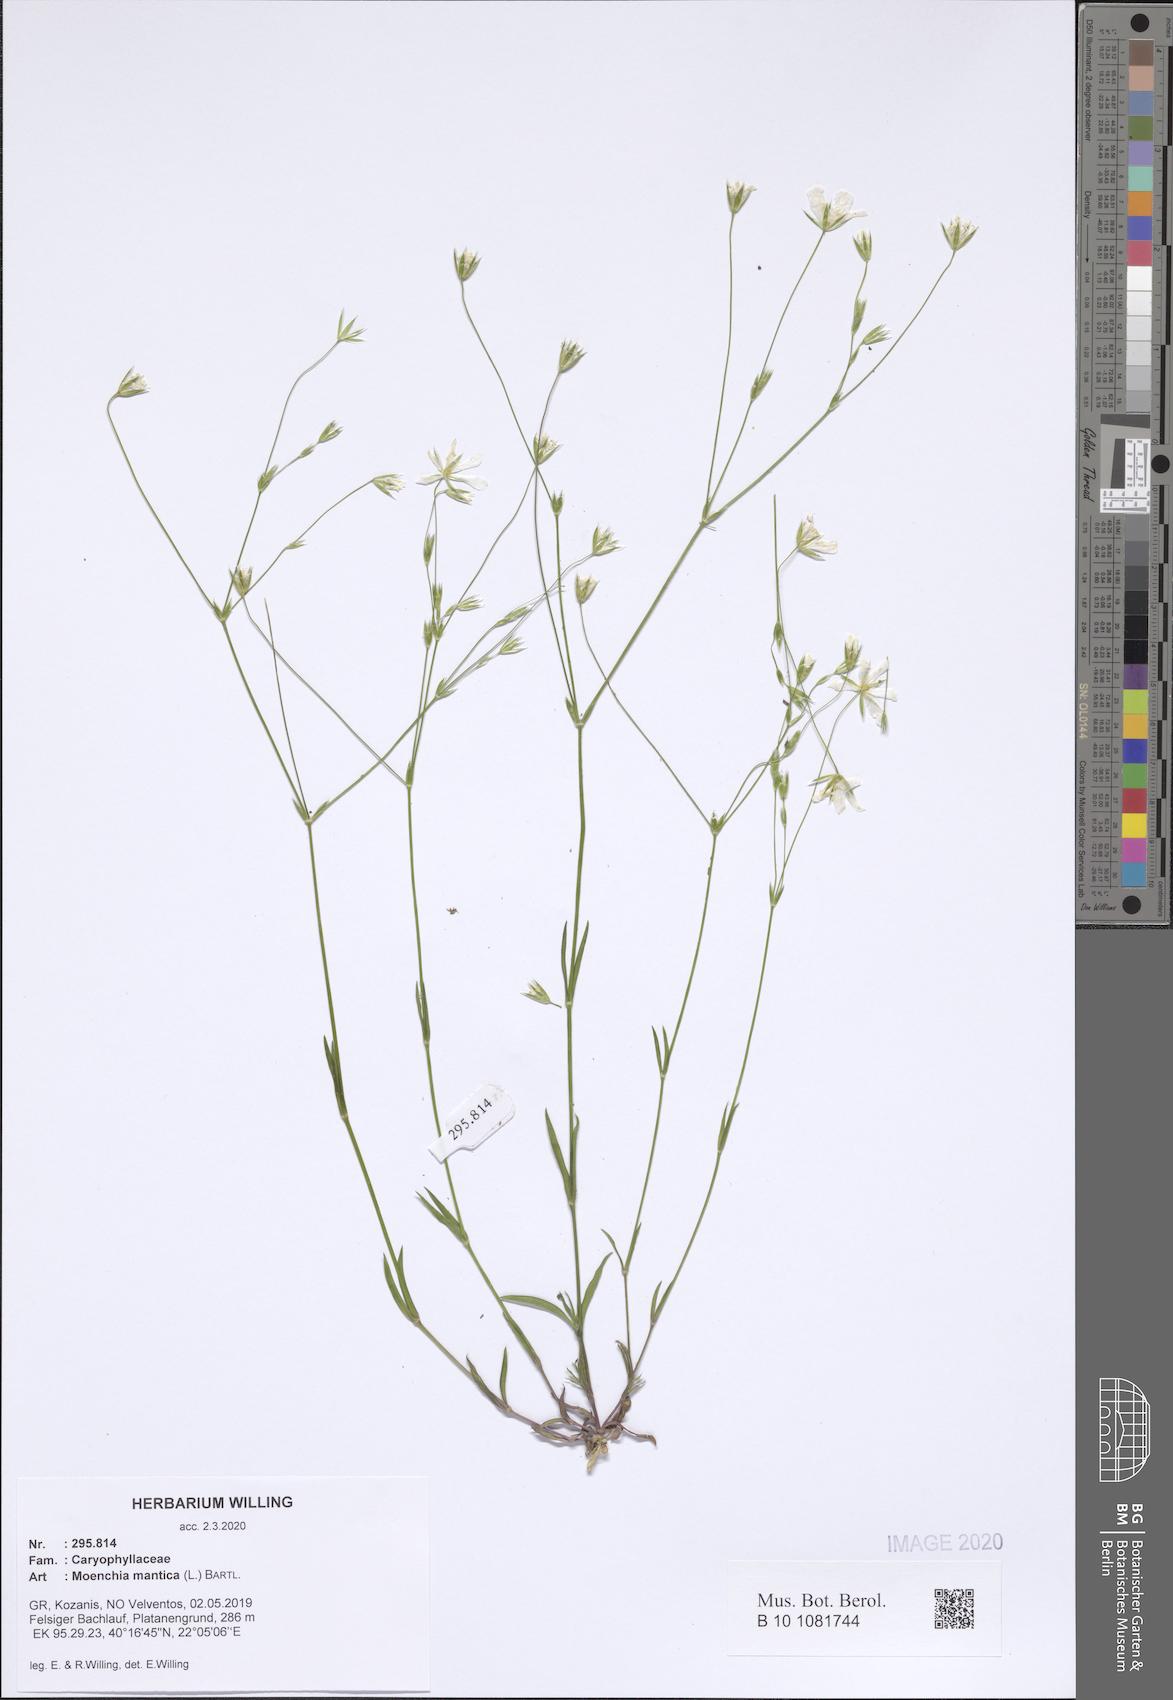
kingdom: Plantae
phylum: Tracheophyta
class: Magnoliopsida
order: Caryophyllales
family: Caryophyllaceae
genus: Moenchia
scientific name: Moenchia mantica
